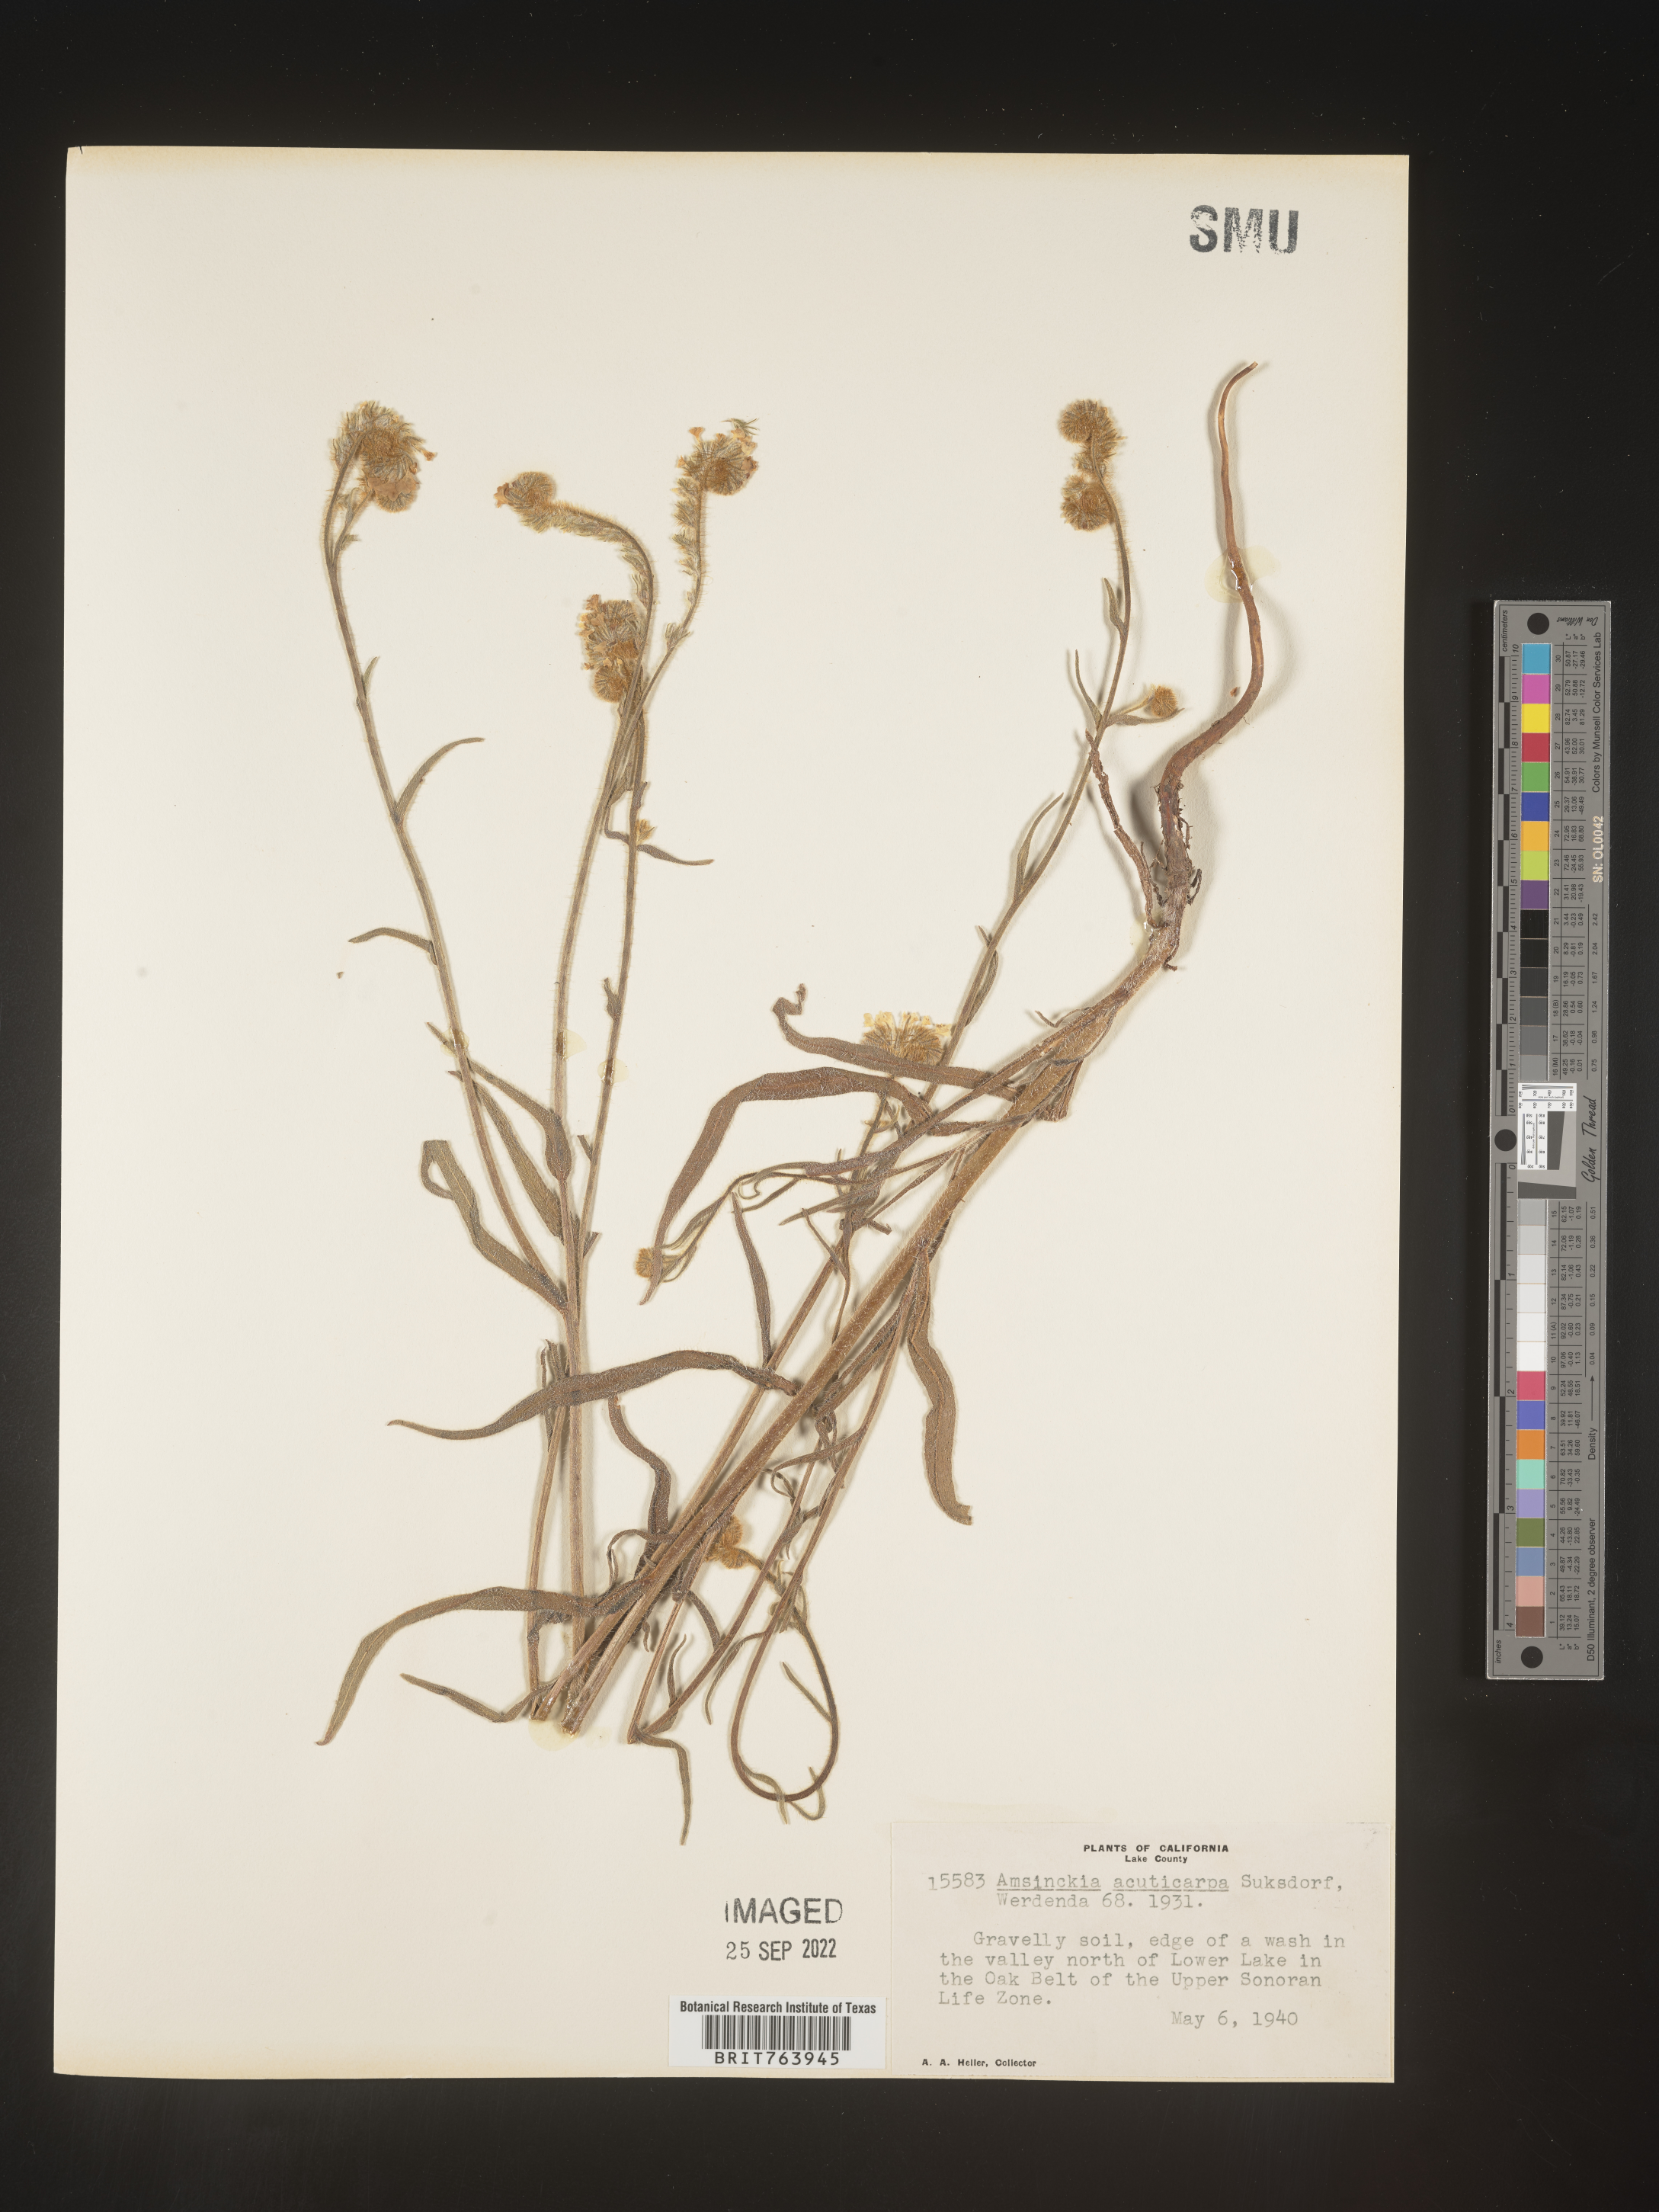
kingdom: Plantae
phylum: Tracheophyta
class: Magnoliopsida
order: Boraginales
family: Boraginaceae
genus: Amsinckia
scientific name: Amsinckia
